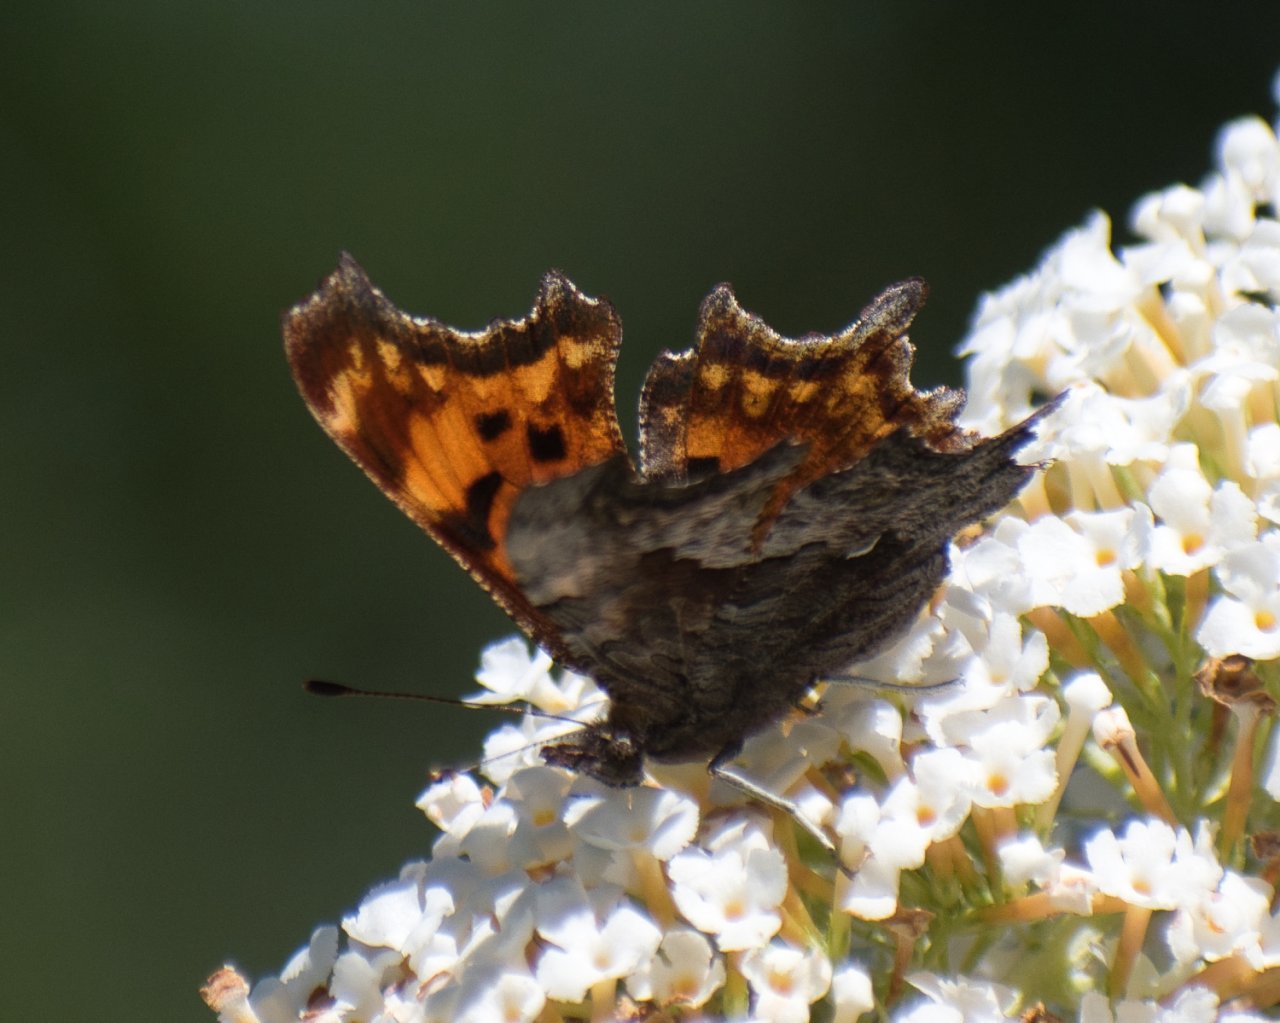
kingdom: Animalia
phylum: Arthropoda
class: Insecta
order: Lepidoptera
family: Nymphalidae
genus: Polygonia
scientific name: Polygonia gracilis
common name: Hoary Comma
